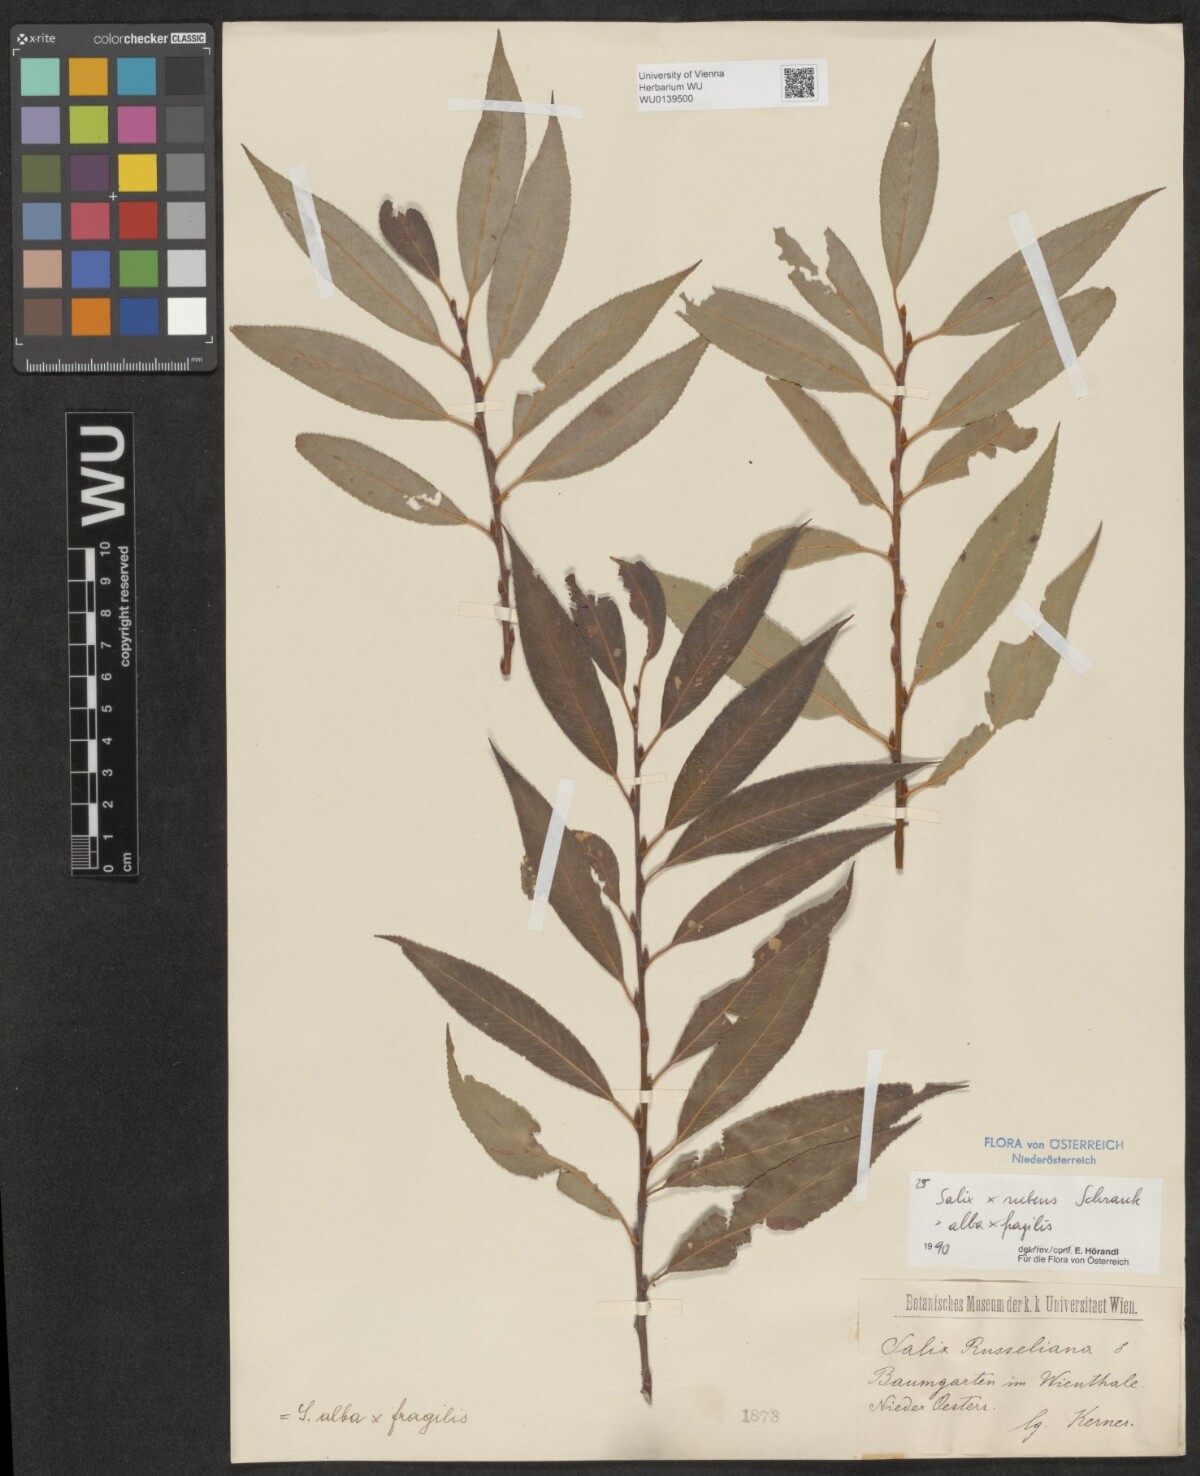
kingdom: Plantae
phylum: Tracheophyta
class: Magnoliopsida
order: Malpighiales
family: Salicaceae
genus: Salix
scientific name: Salix rubens
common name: Hybrid crack willow
